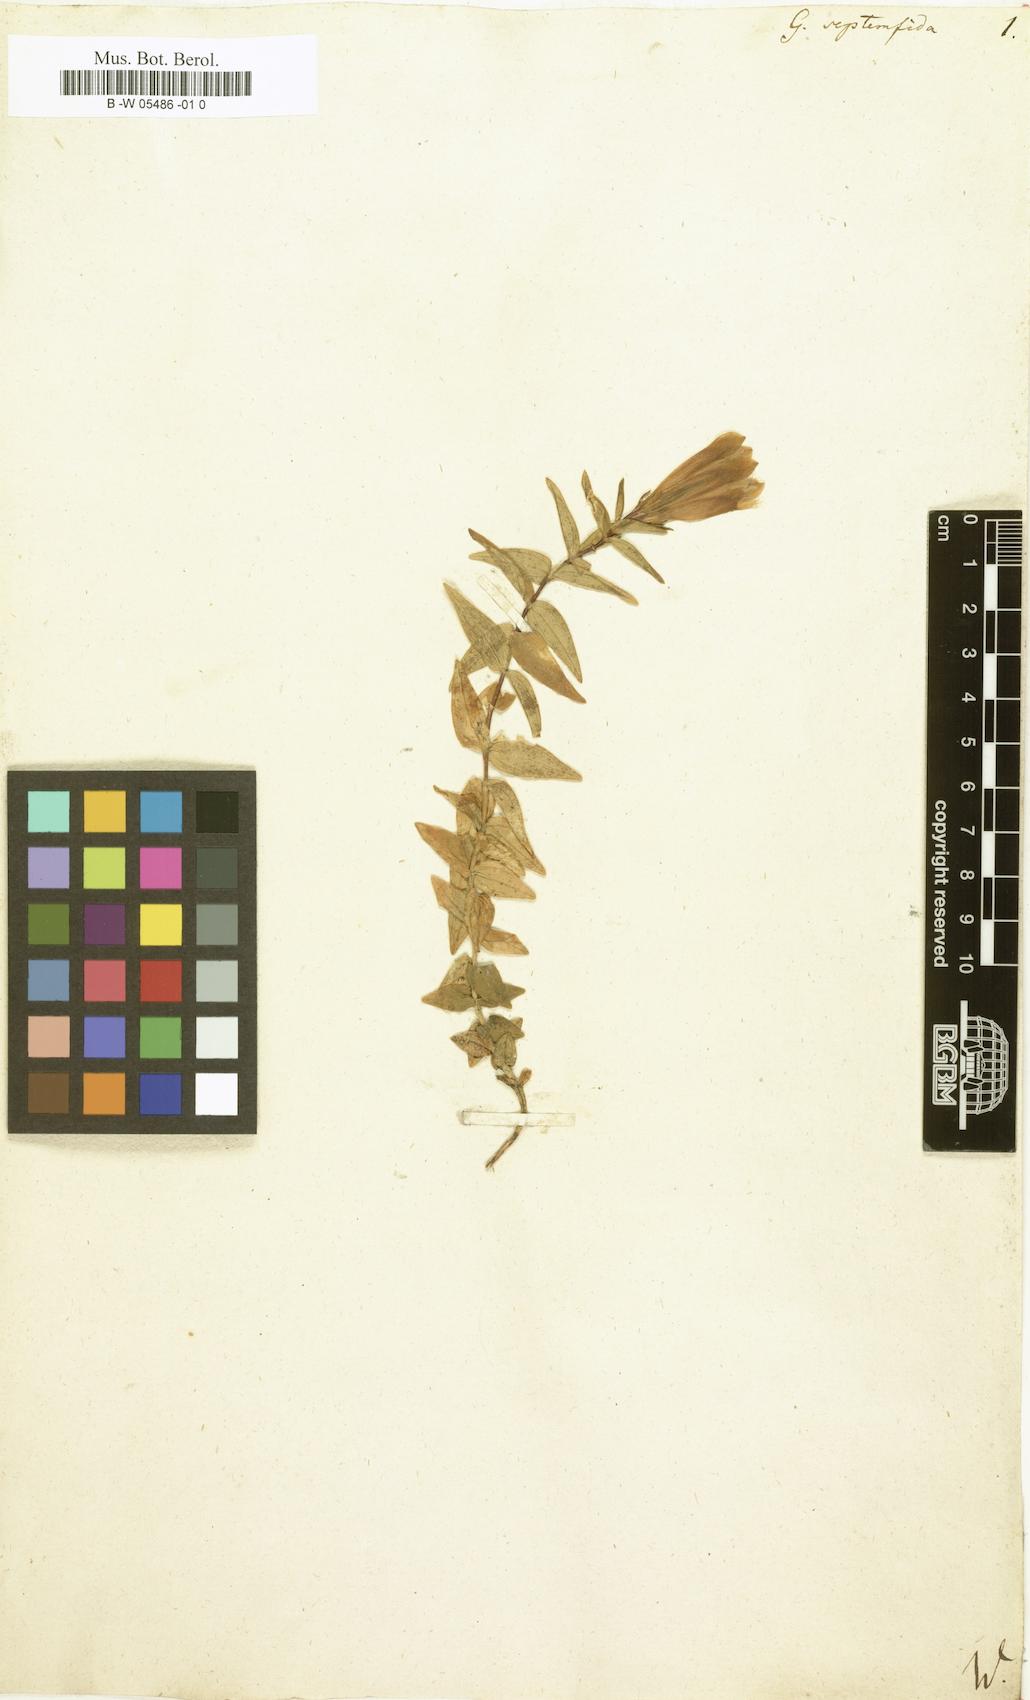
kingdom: Plantae
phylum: Tracheophyta
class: Magnoliopsida
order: Gentianales
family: Gentianaceae
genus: Gentiana
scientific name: Gentiana septemfida
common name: Crested gentian
